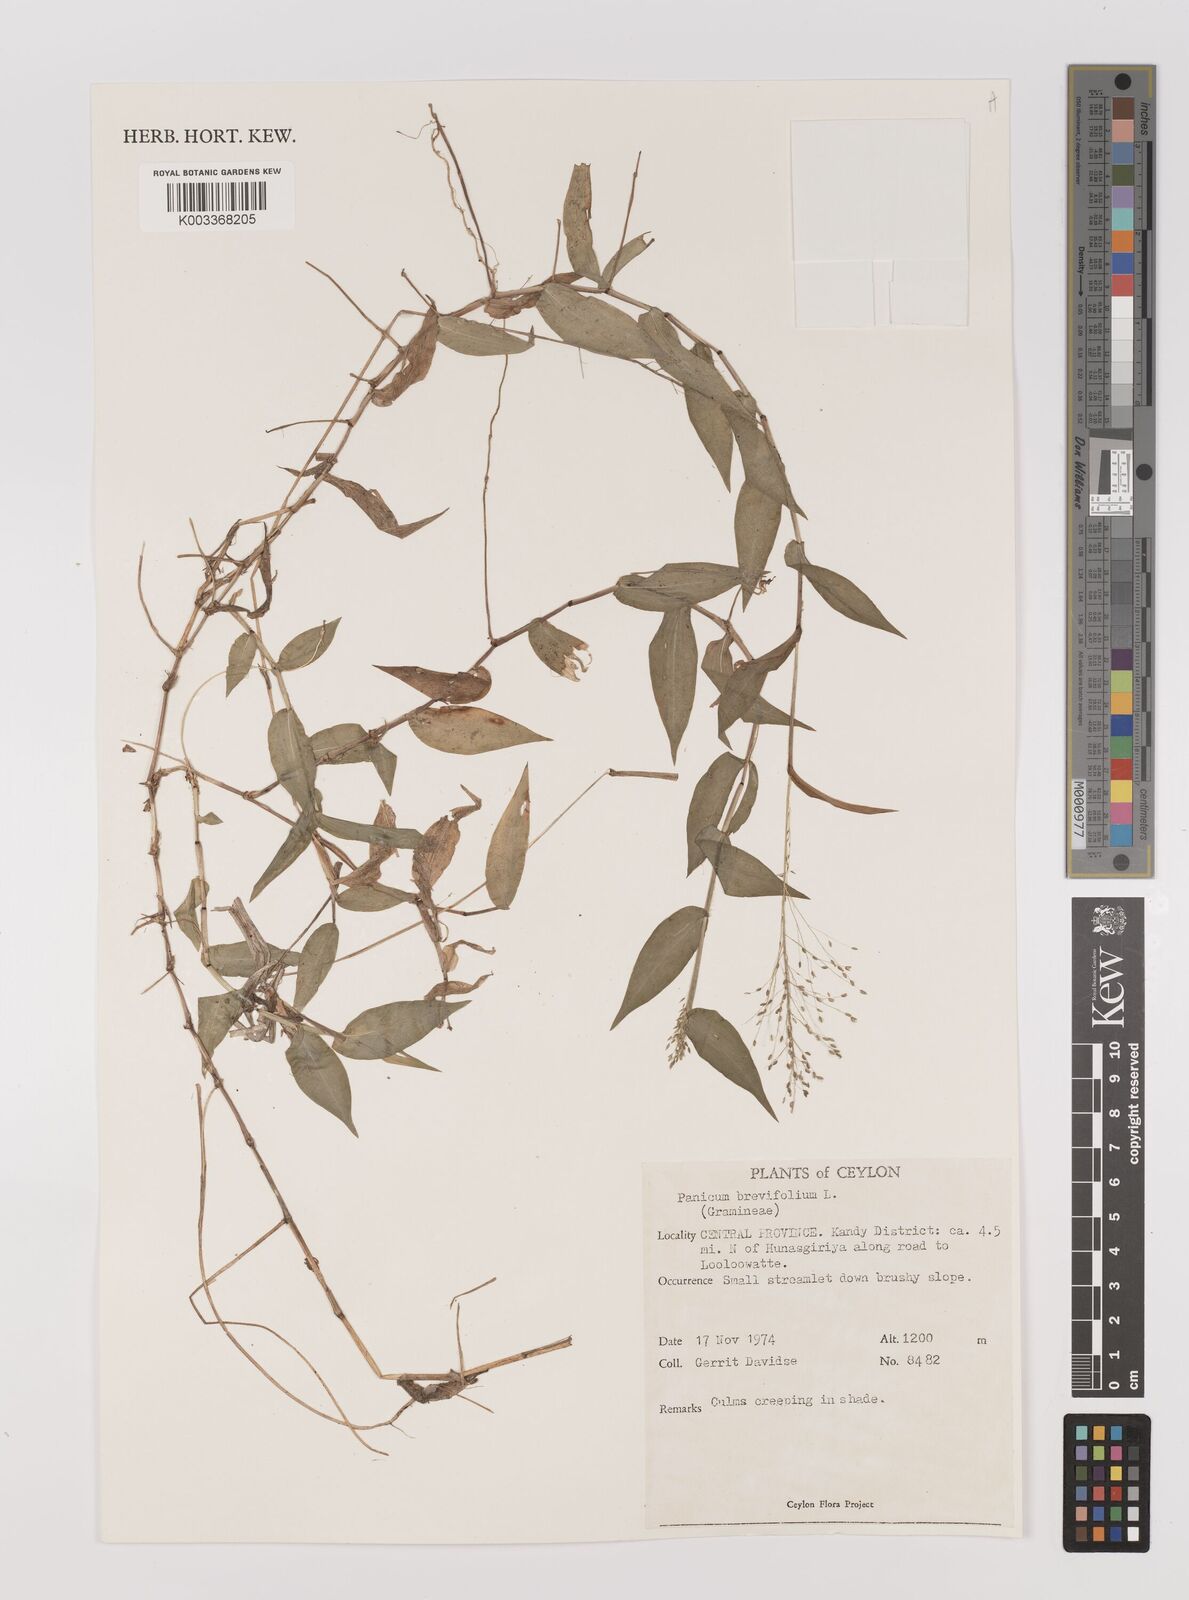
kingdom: Plantae
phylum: Tracheophyta
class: Liliopsida
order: Poales
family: Poaceae
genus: Panicum
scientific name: Panicum brevifolium
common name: Shortleaf panic grass
